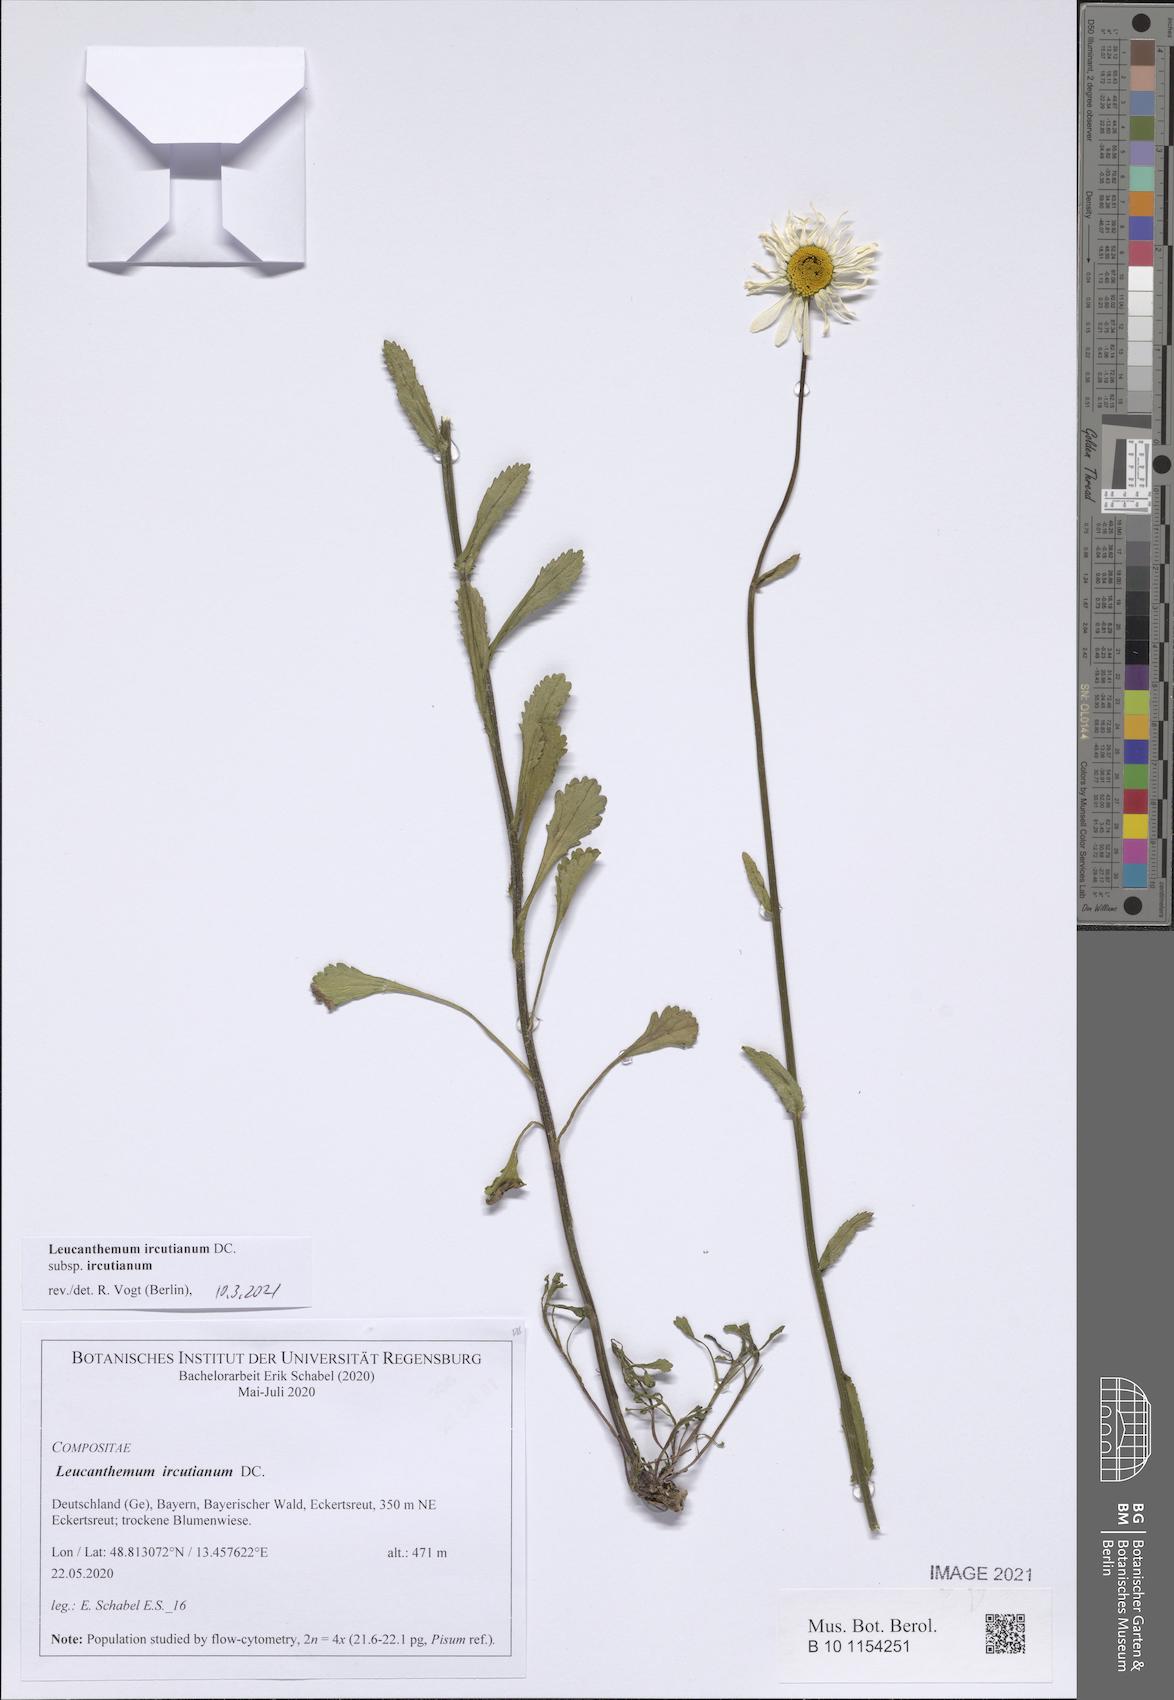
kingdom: Plantae
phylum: Tracheophyta
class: Magnoliopsida
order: Asterales
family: Asteraceae
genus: Leucanthemum
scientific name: Leucanthemum ircutianum
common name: Daisy
